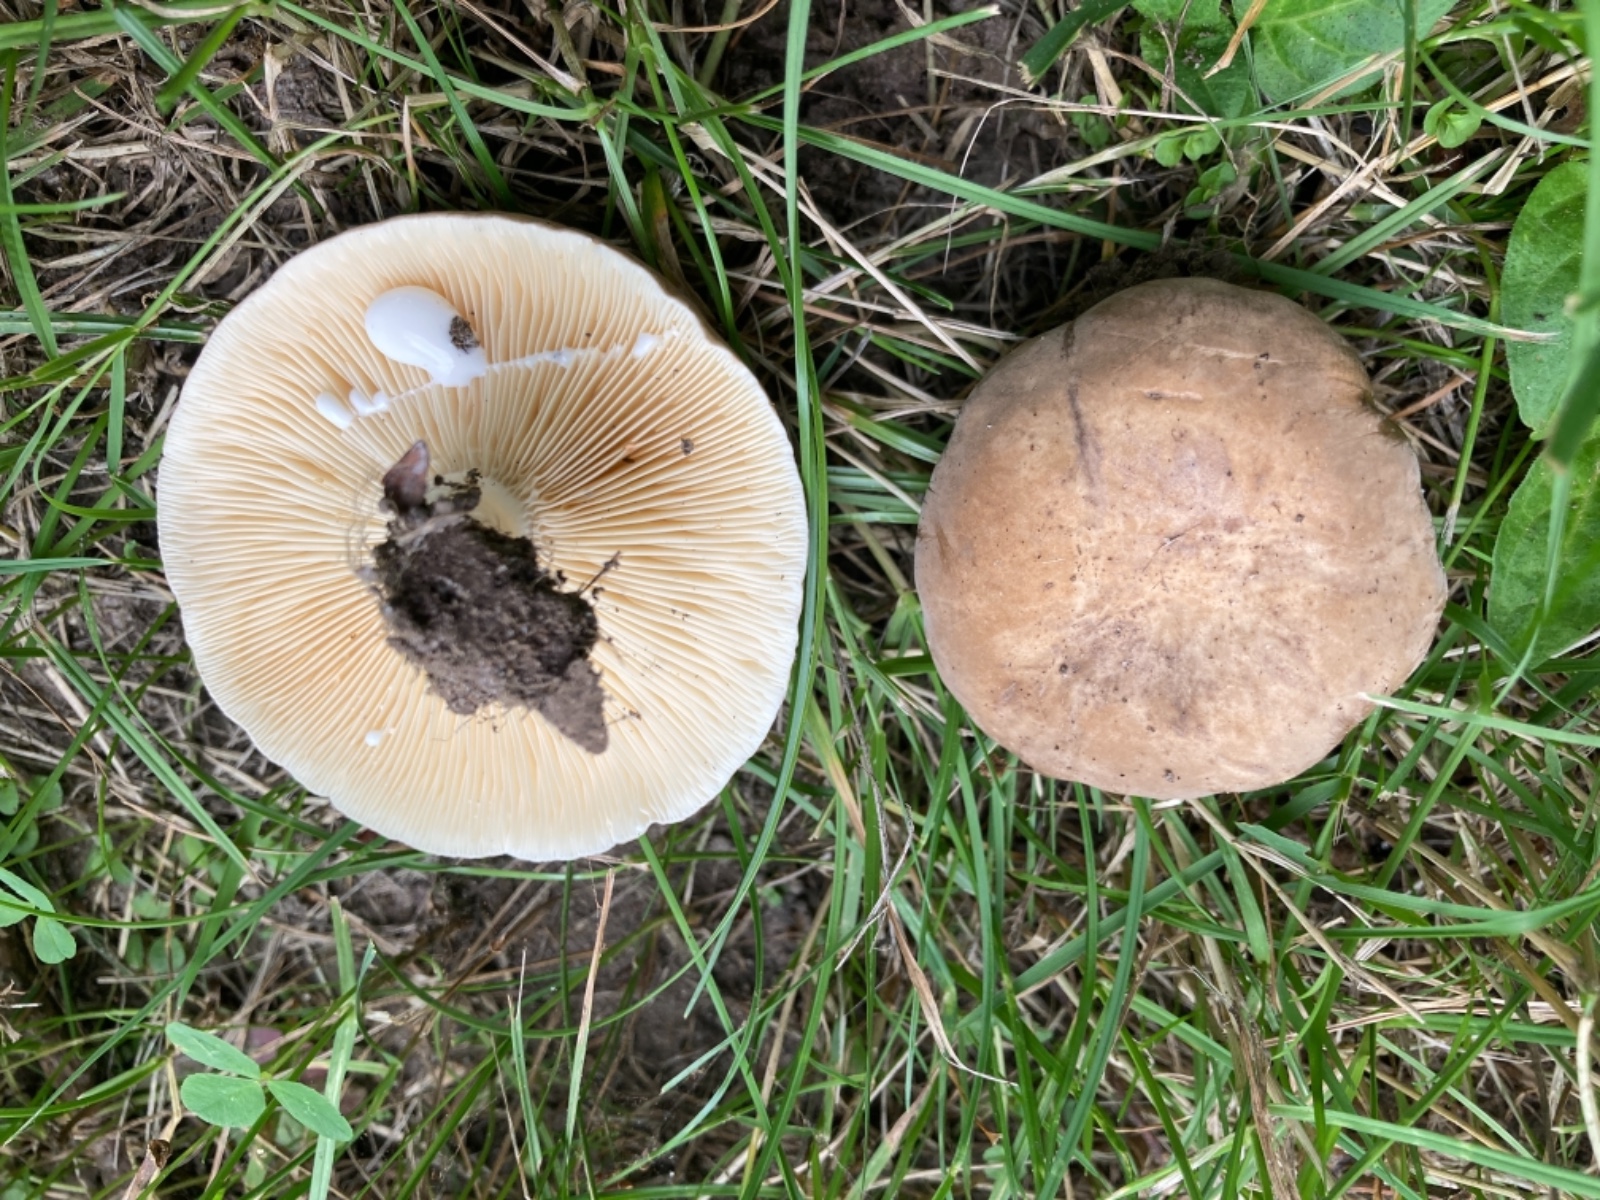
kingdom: Fungi
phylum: Basidiomycota
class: Agaricomycetes
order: Russulales
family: Russulaceae
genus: Lactarius
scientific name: Lactarius azonites
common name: røggrå mælkehat
